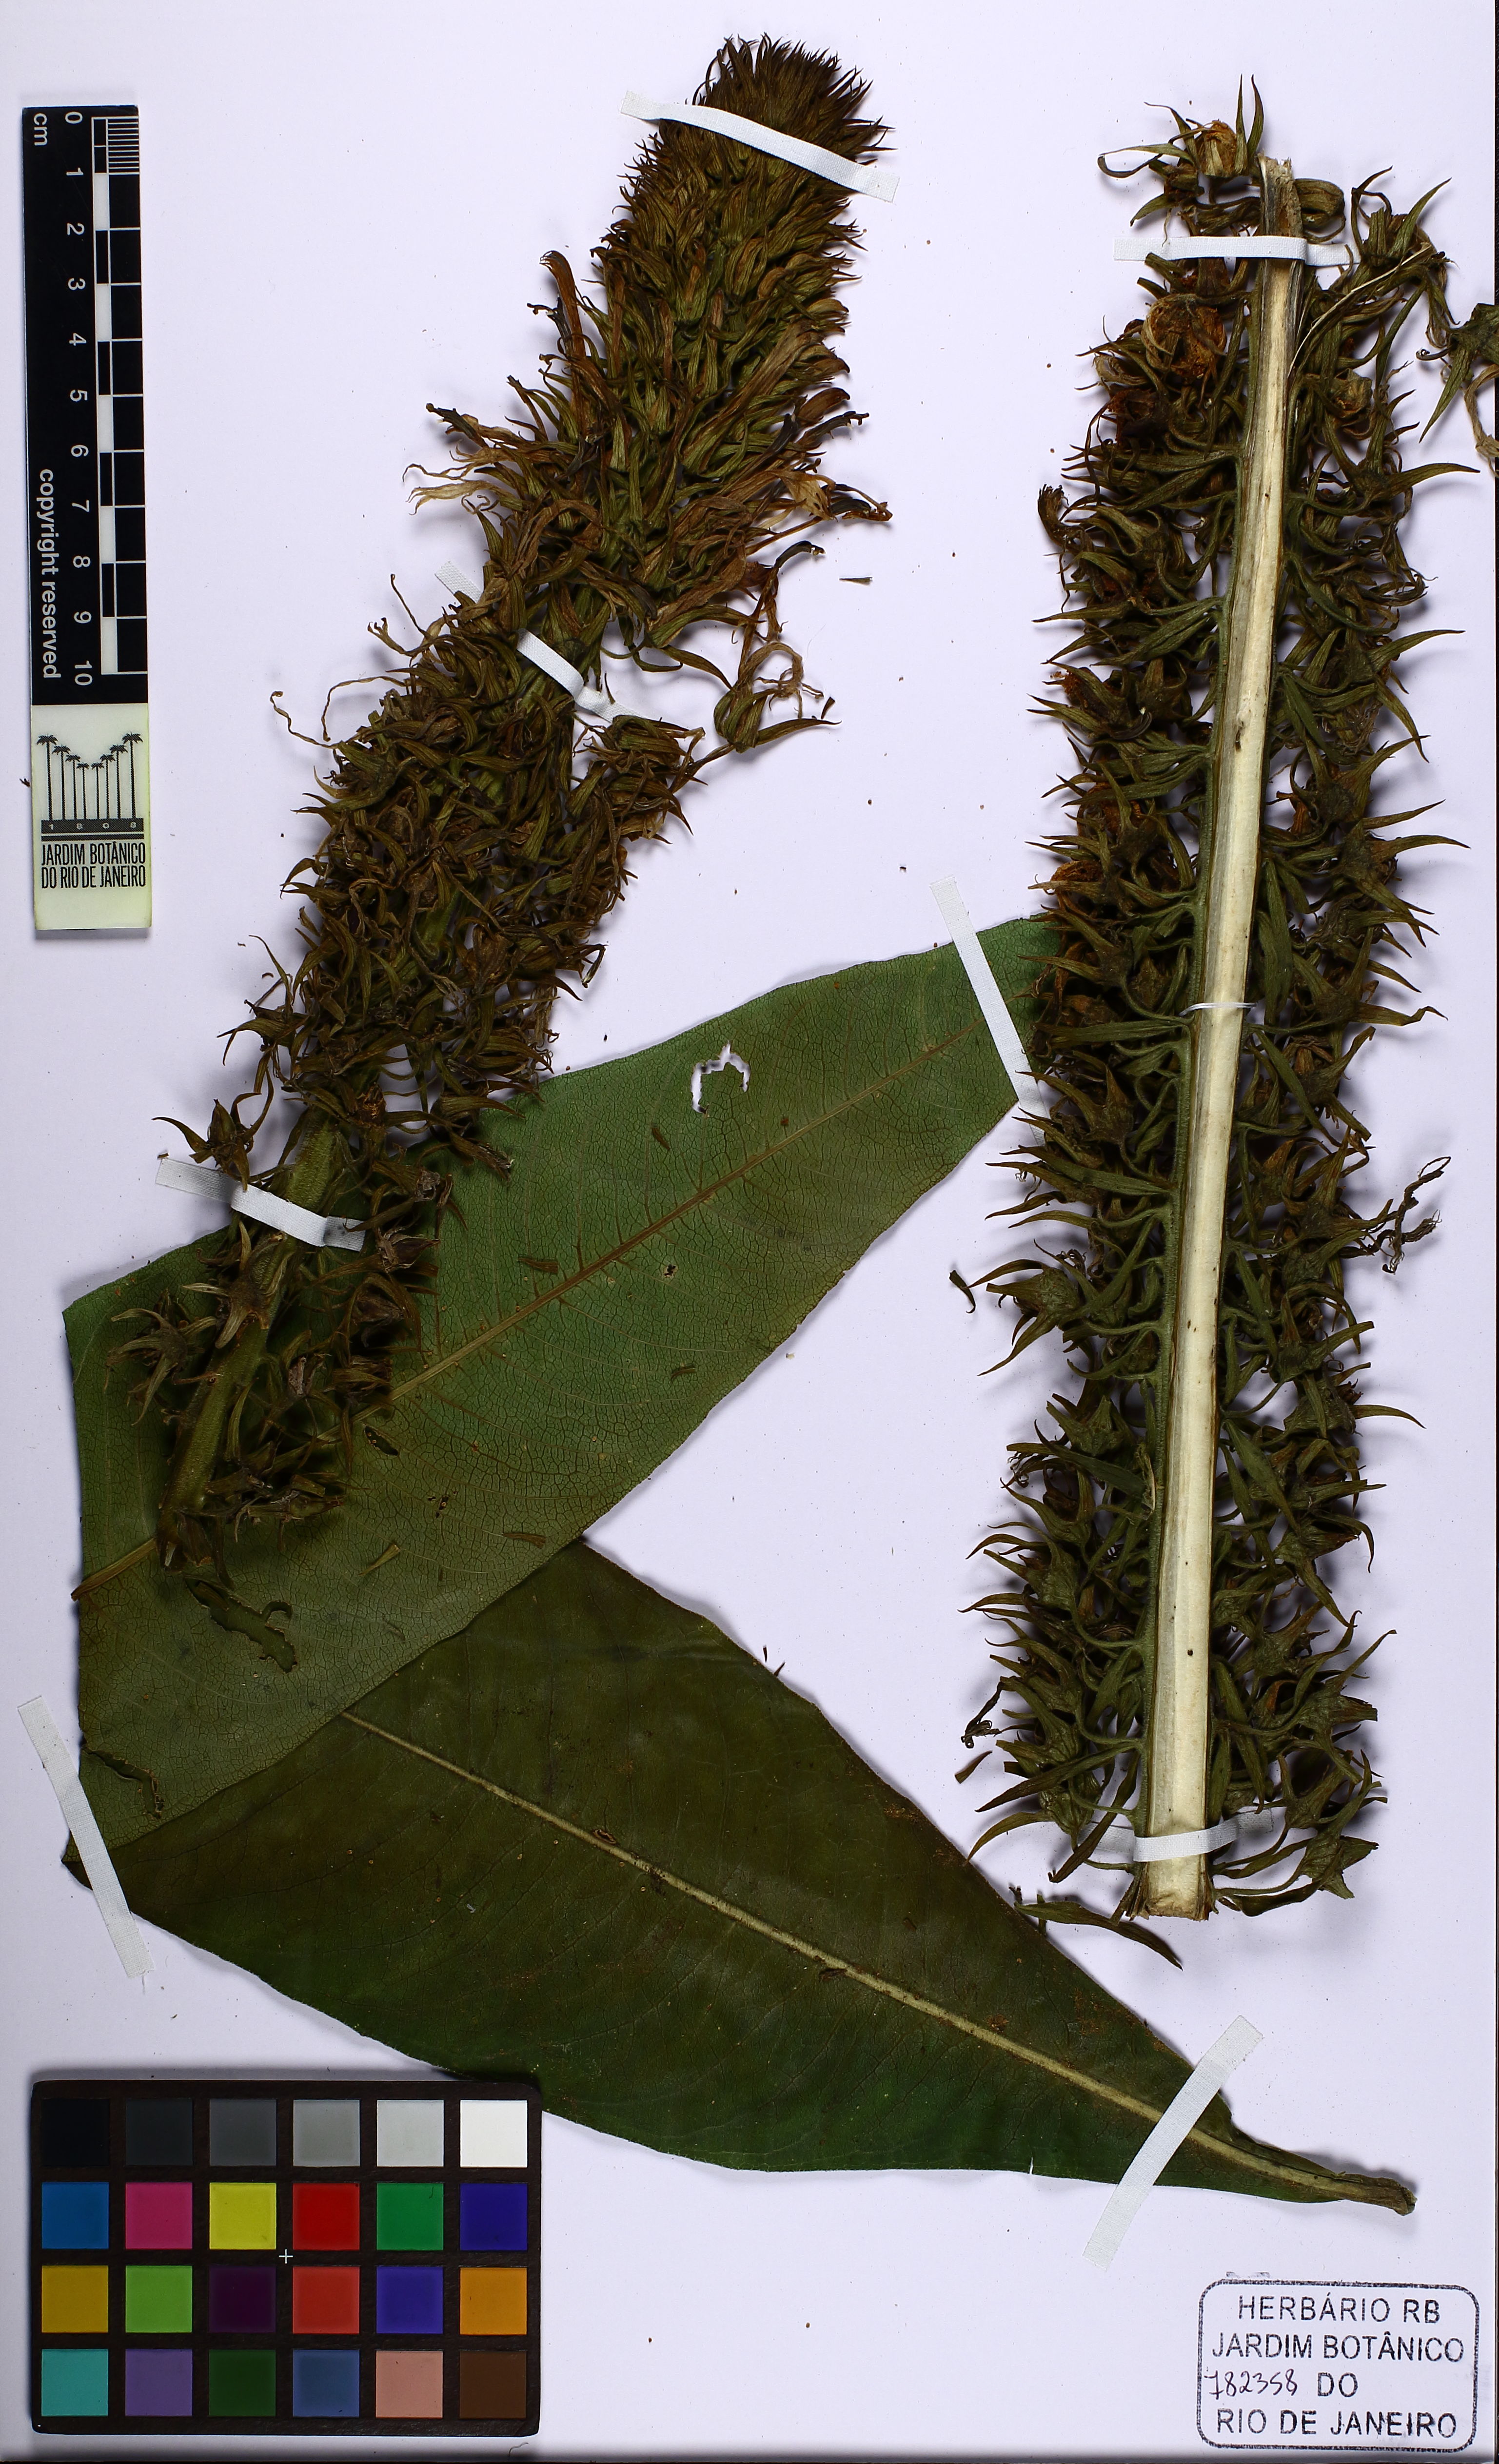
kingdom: Plantae
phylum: Tracheophyta
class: Magnoliopsida
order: Asterales
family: Campanulaceae
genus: Lobelia
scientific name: Lobelia thapsoidea
